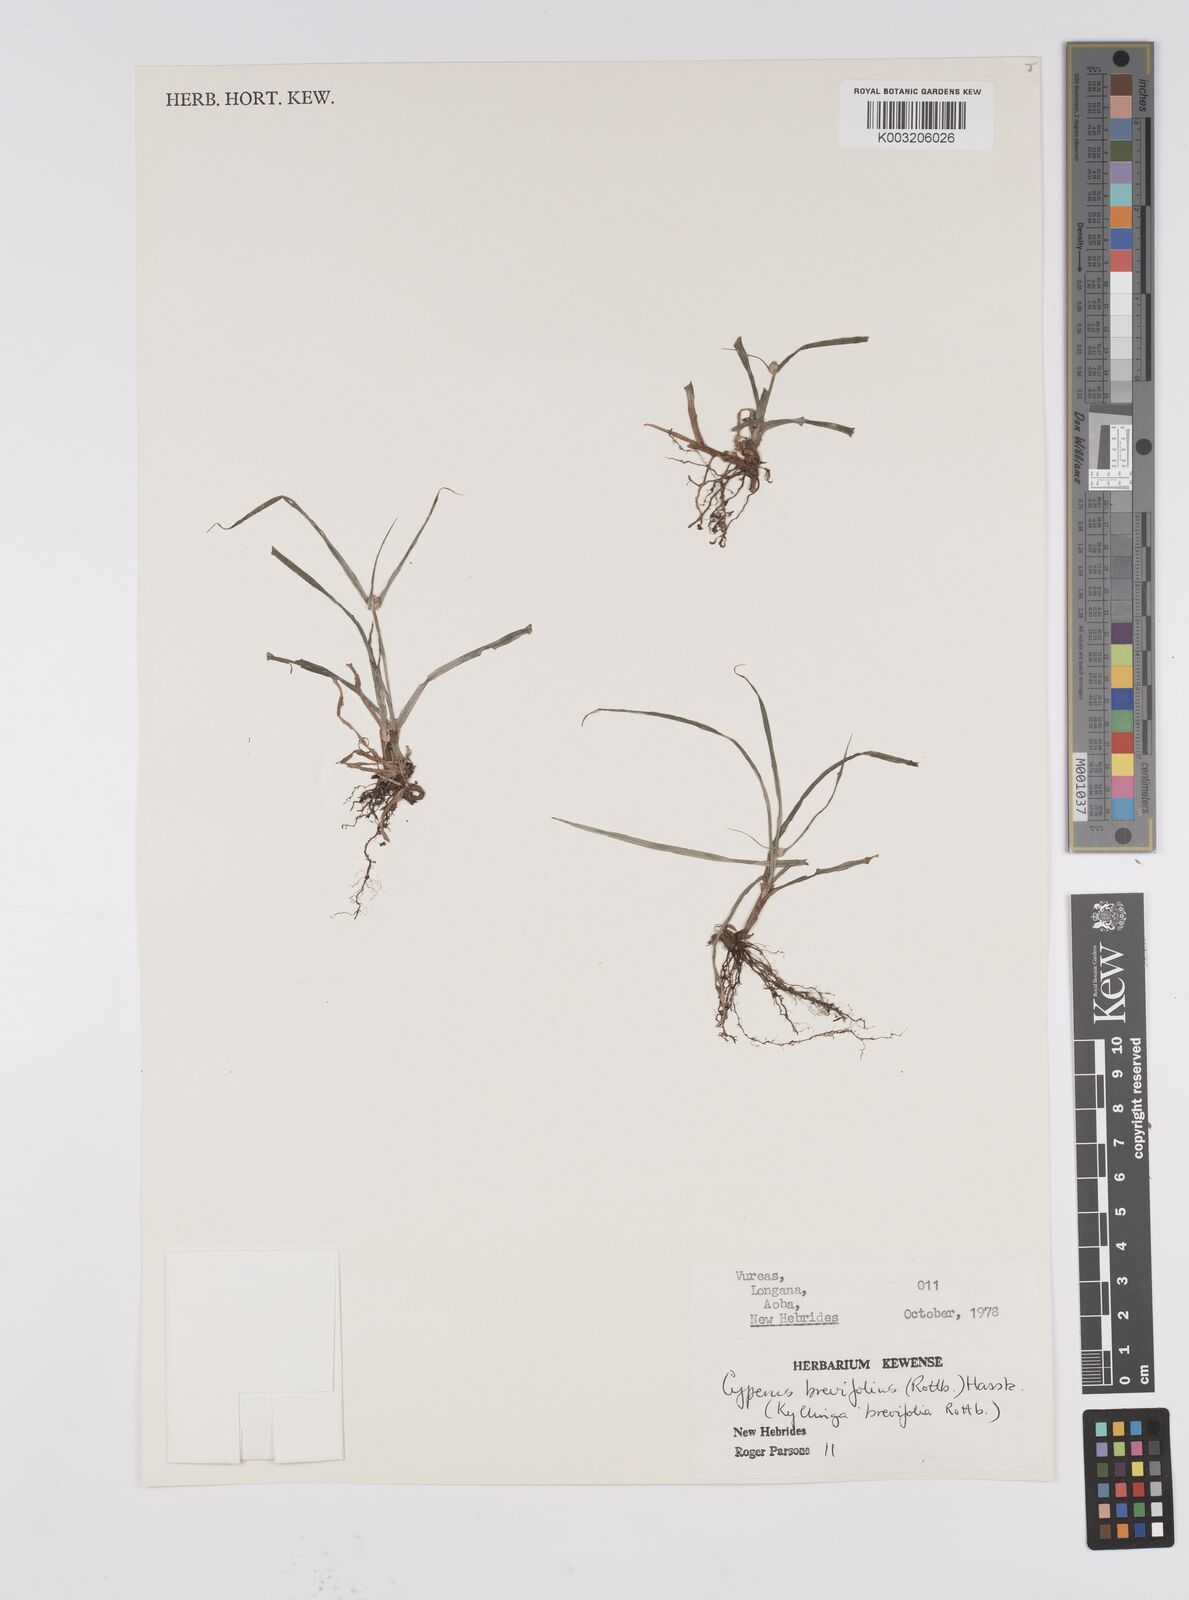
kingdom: Plantae
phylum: Tracheophyta
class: Liliopsida
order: Poales
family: Cyperaceae
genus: Cyperus
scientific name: Cyperus brevifolius
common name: Globe kyllinga
